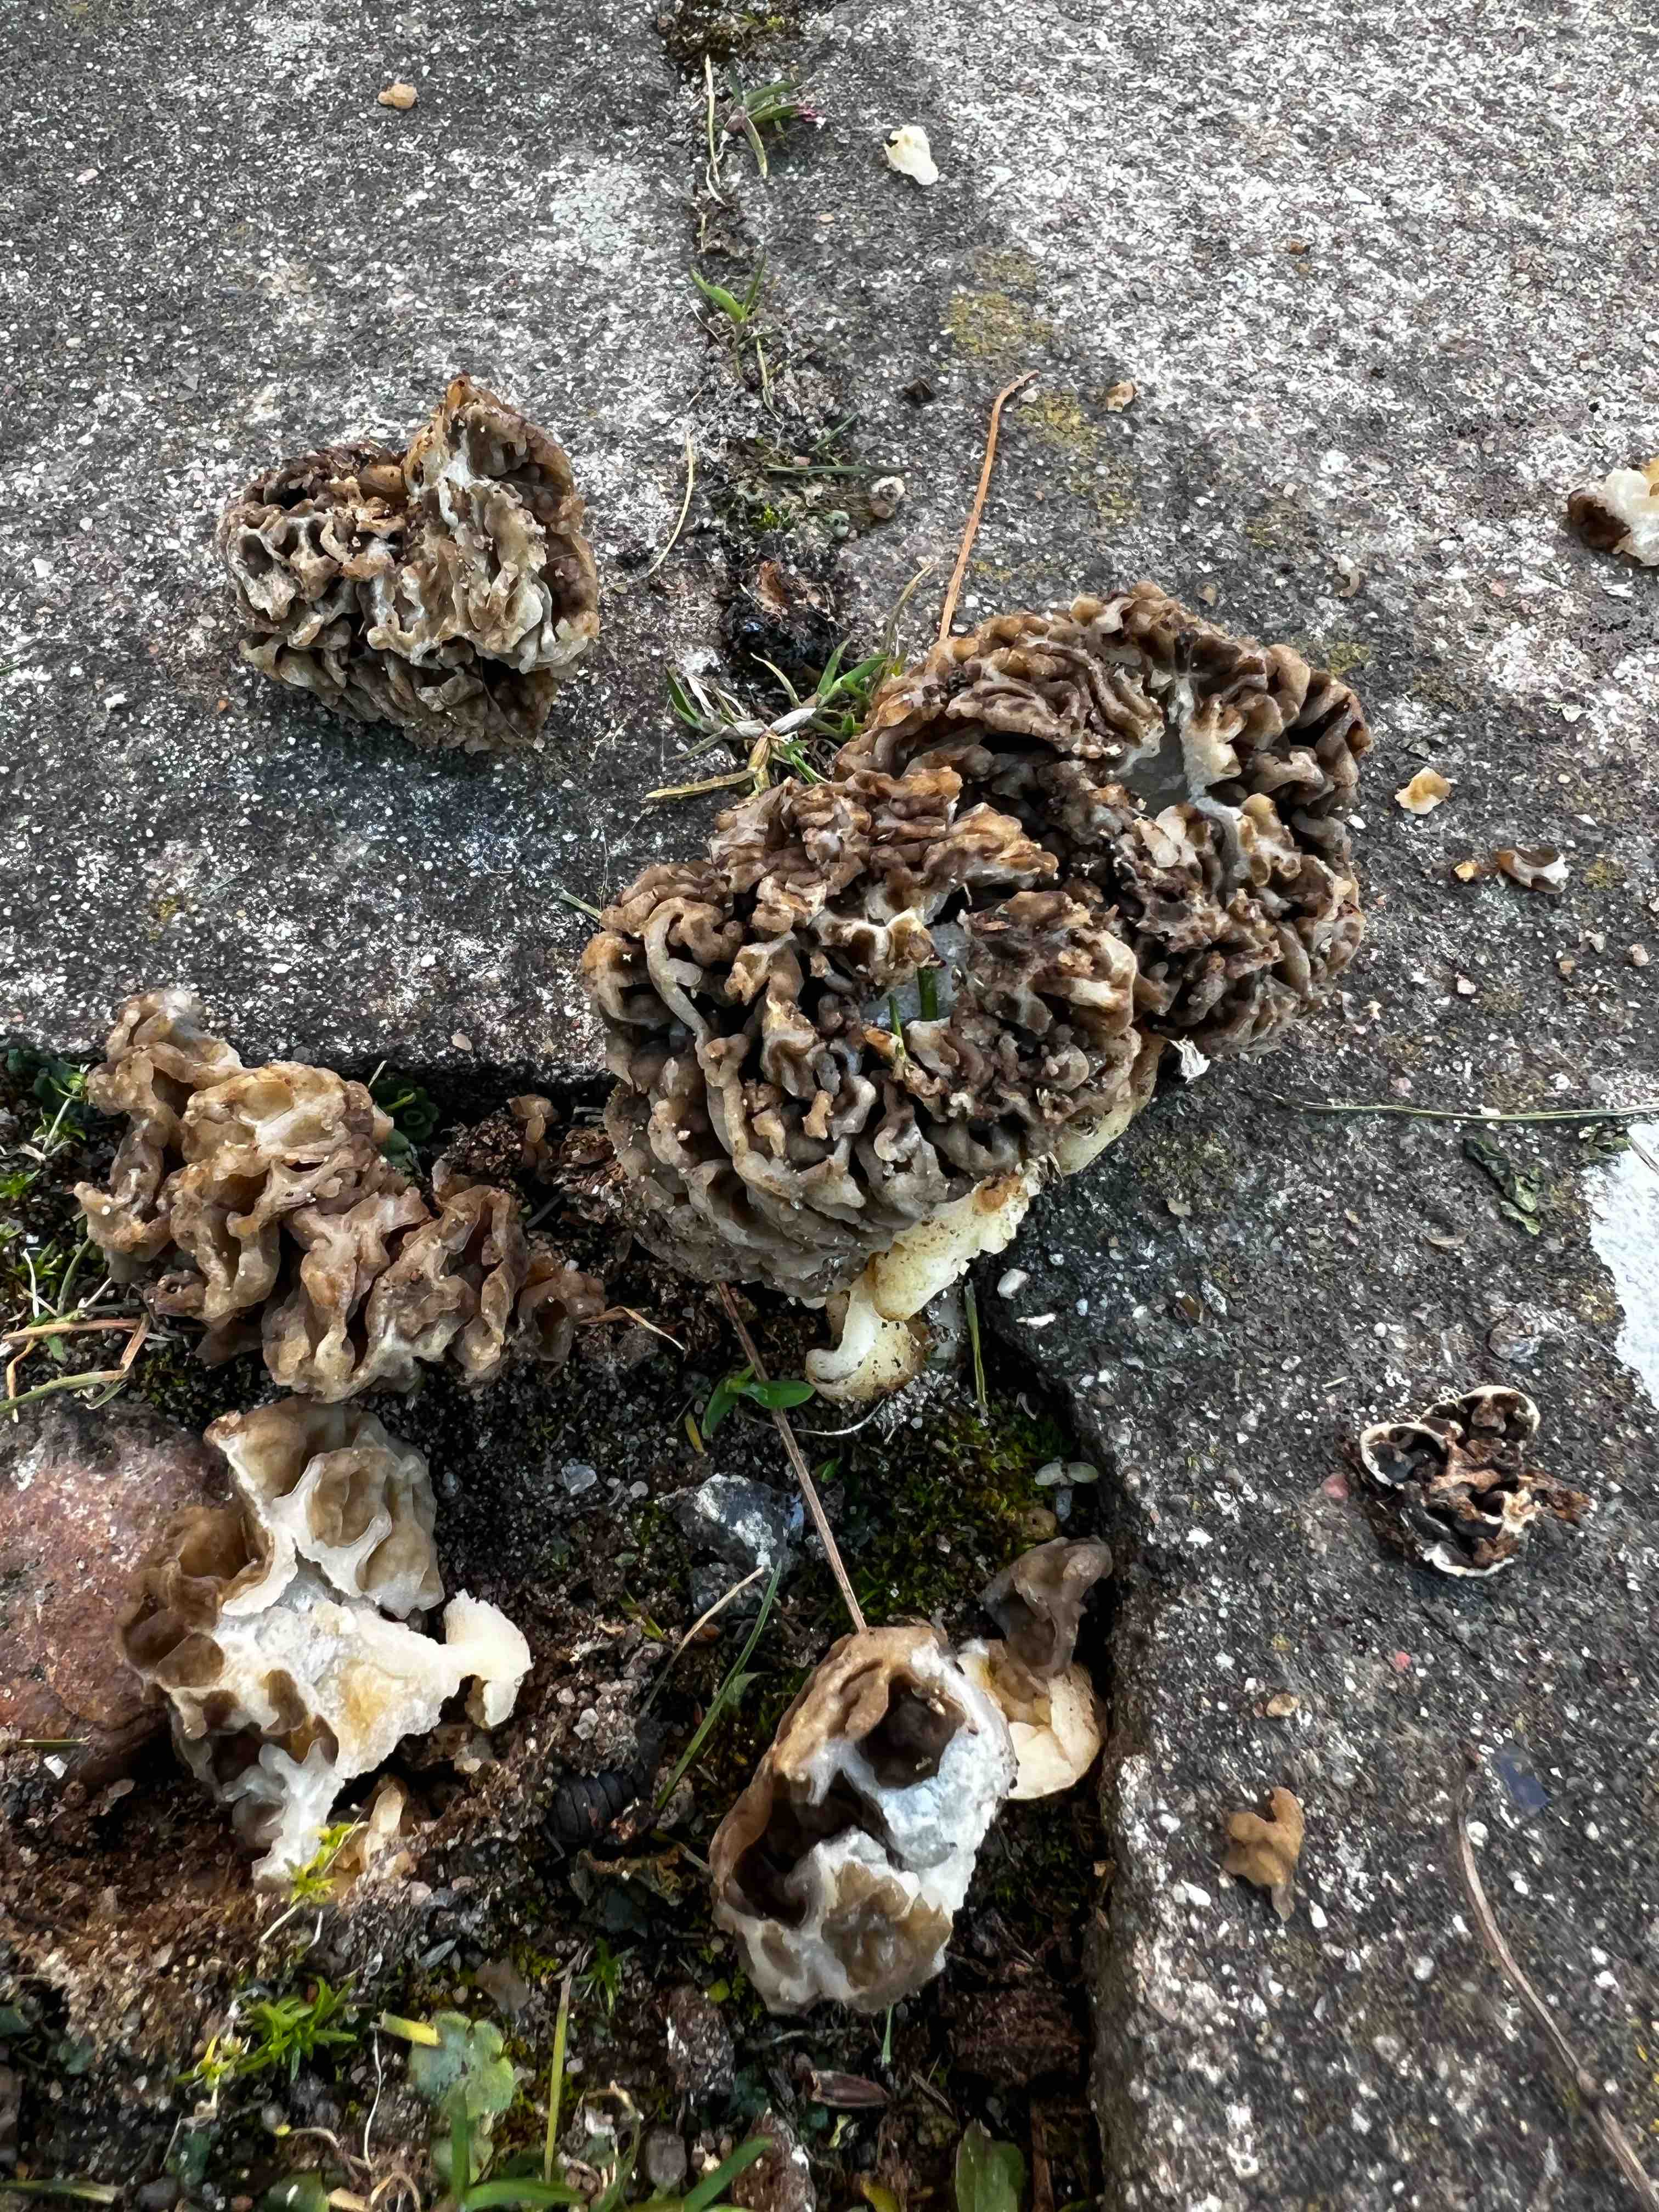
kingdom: Fungi
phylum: Ascomycota
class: Pezizomycetes
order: Pezizales
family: Morchellaceae
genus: Morchella
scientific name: Morchella
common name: morkel
